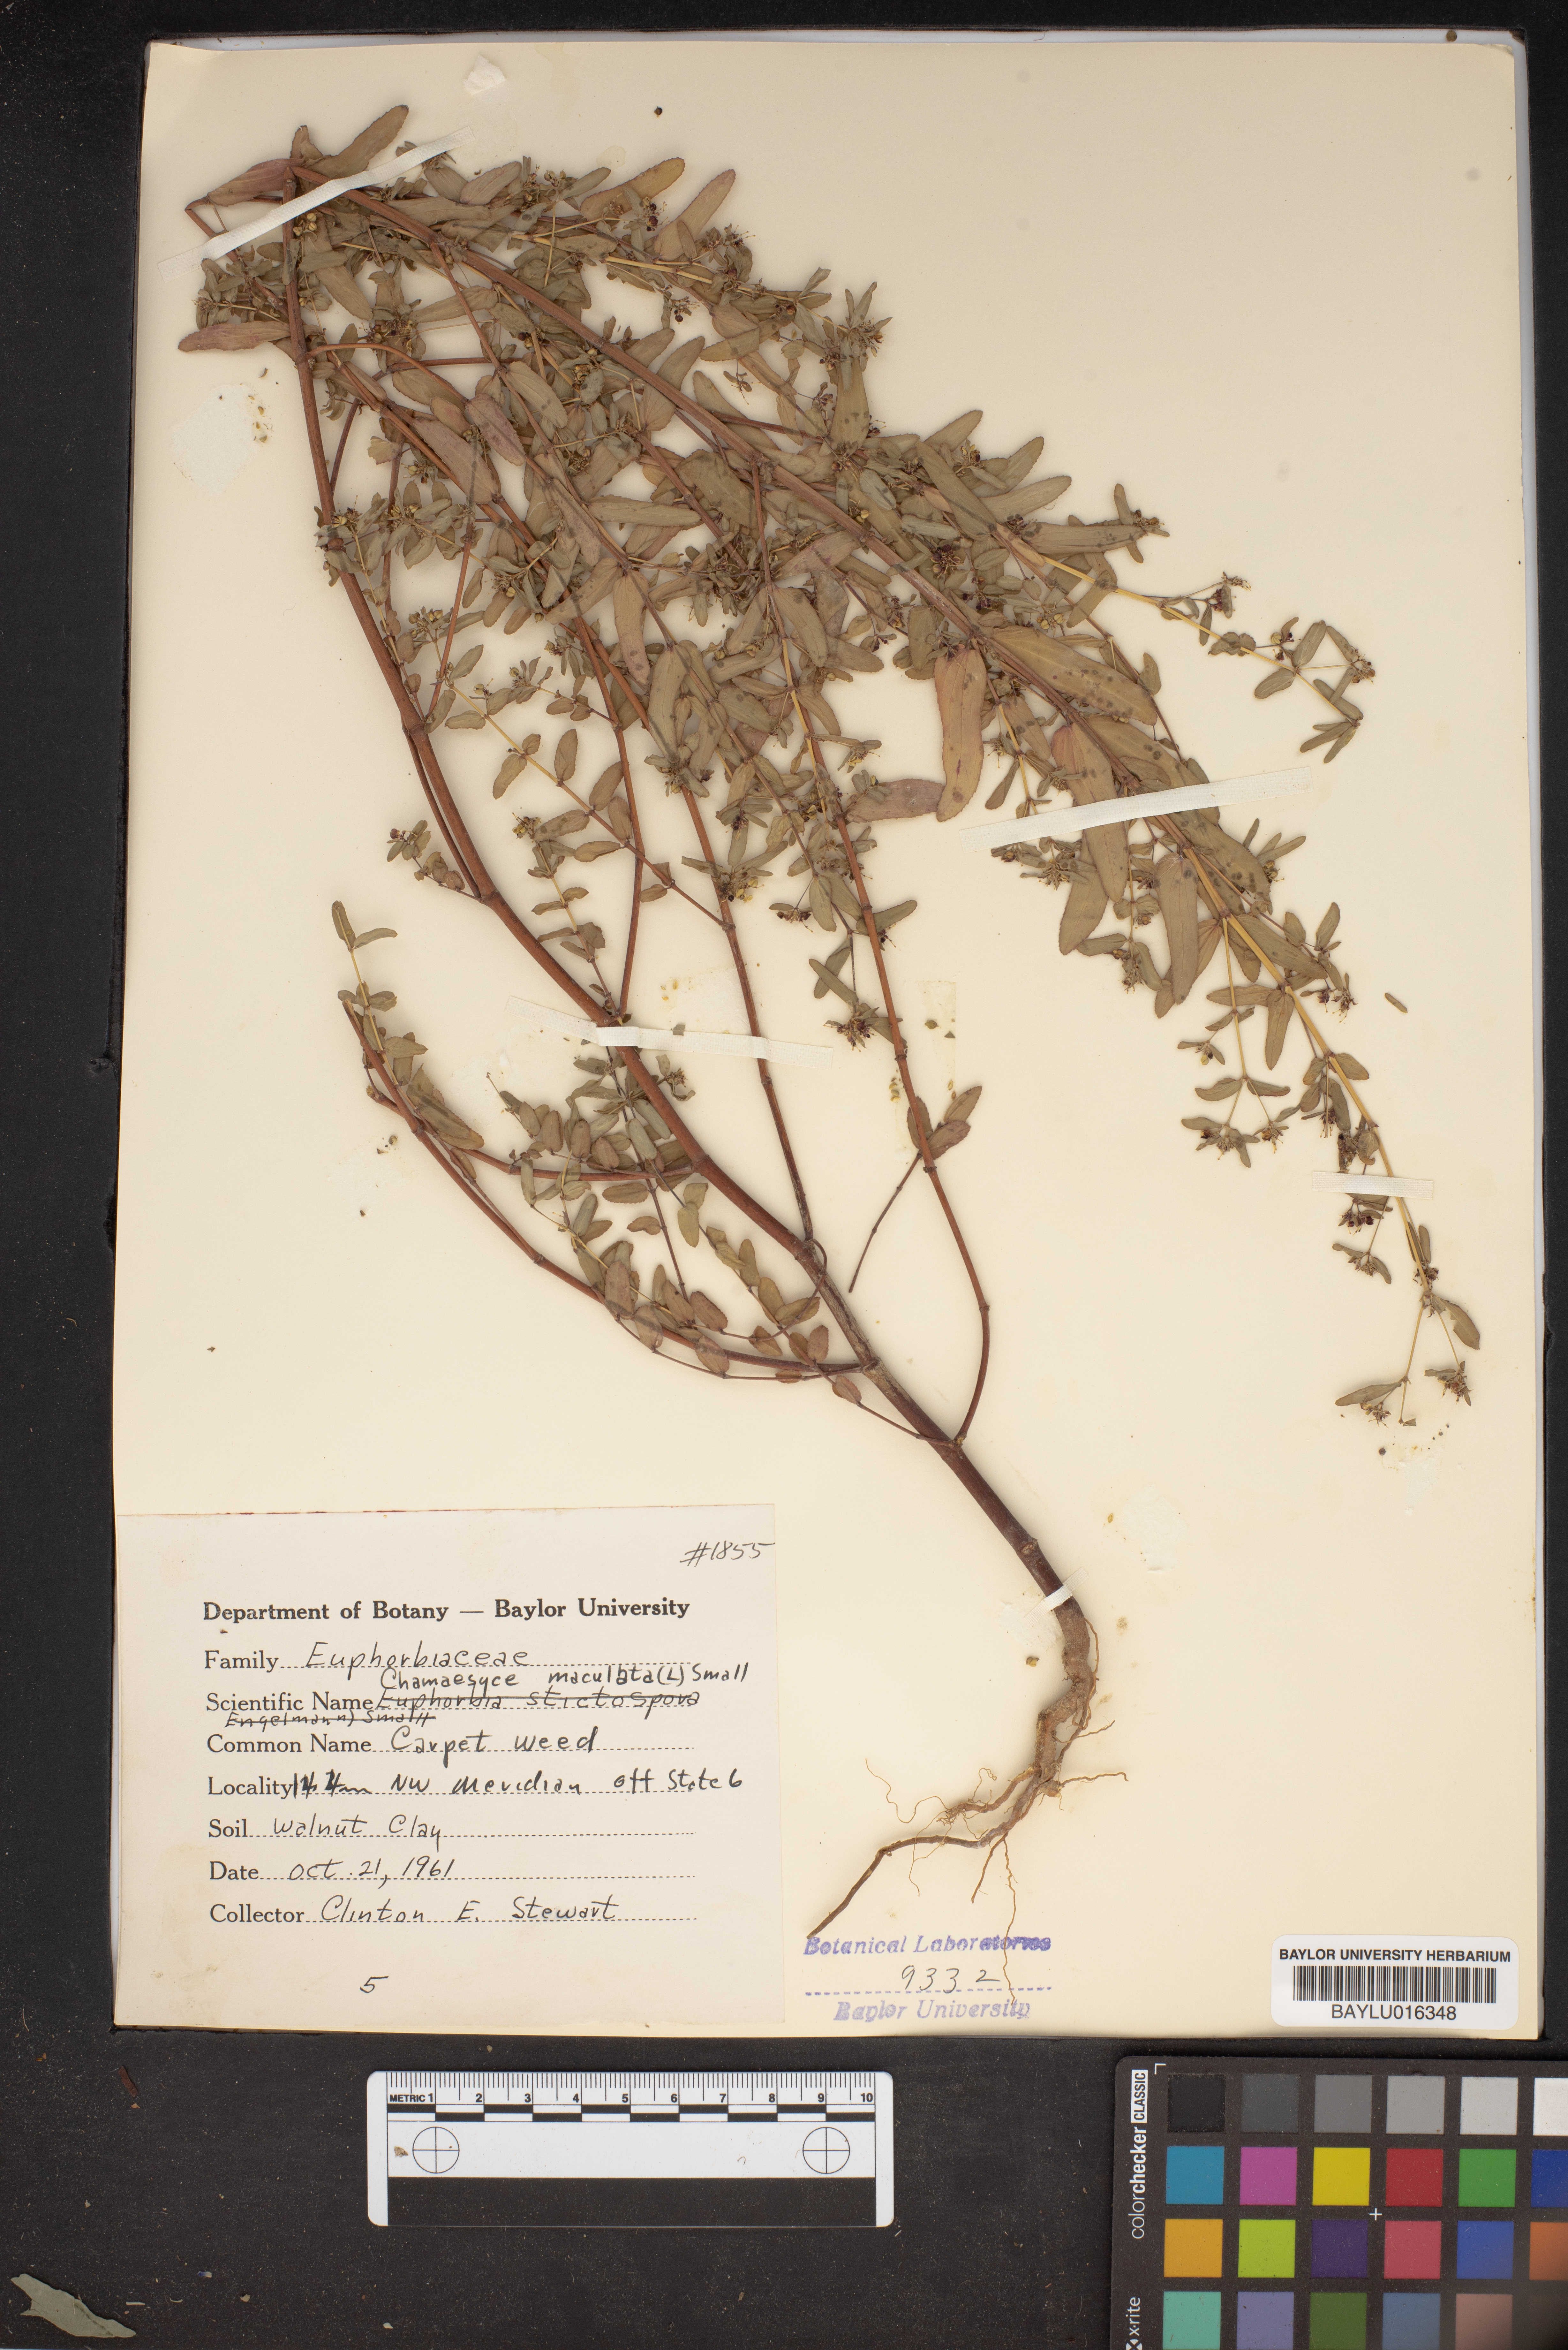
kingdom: Plantae
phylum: Tracheophyta
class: Magnoliopsida
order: Malpighiales
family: Euphorbiaceae
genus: Euphorbia
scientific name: Euphorbia maculata
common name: Spotted spurge
